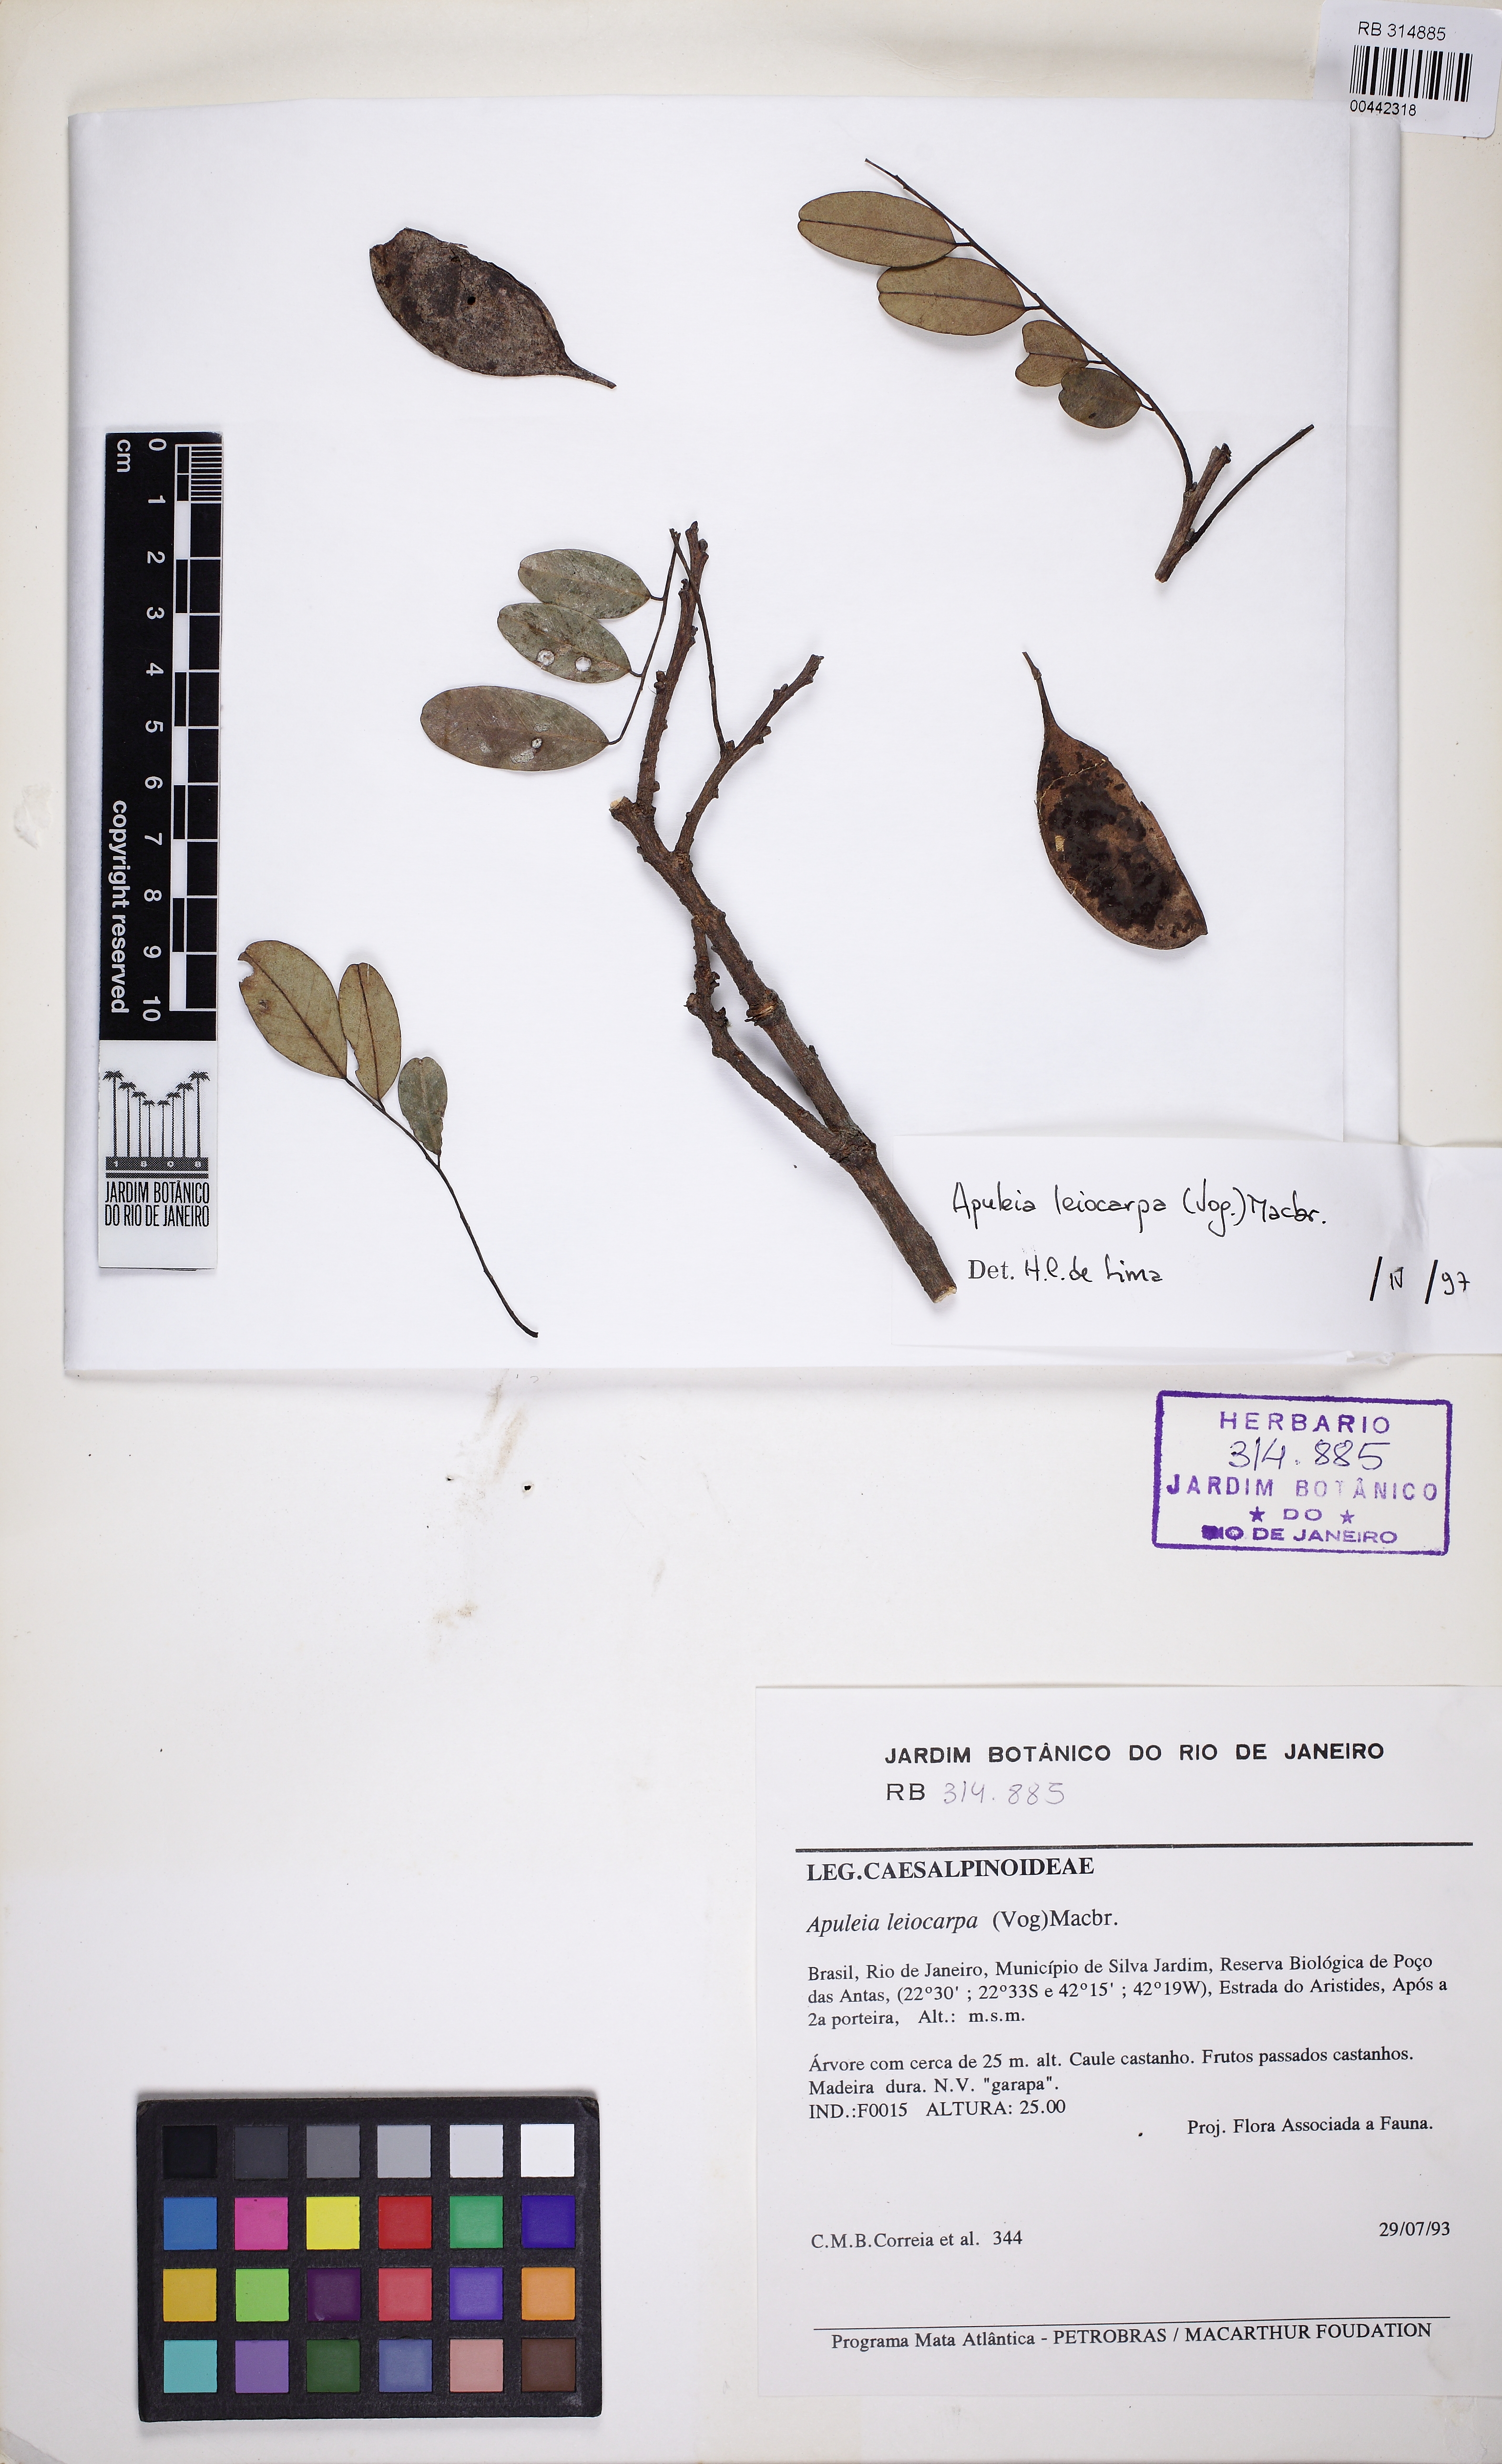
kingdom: Plantae
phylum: Tracheophyta
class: Magnoliopsida
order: Fabales
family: Fabaceae
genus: Apuleia
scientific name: Apuleia leiocarpa
